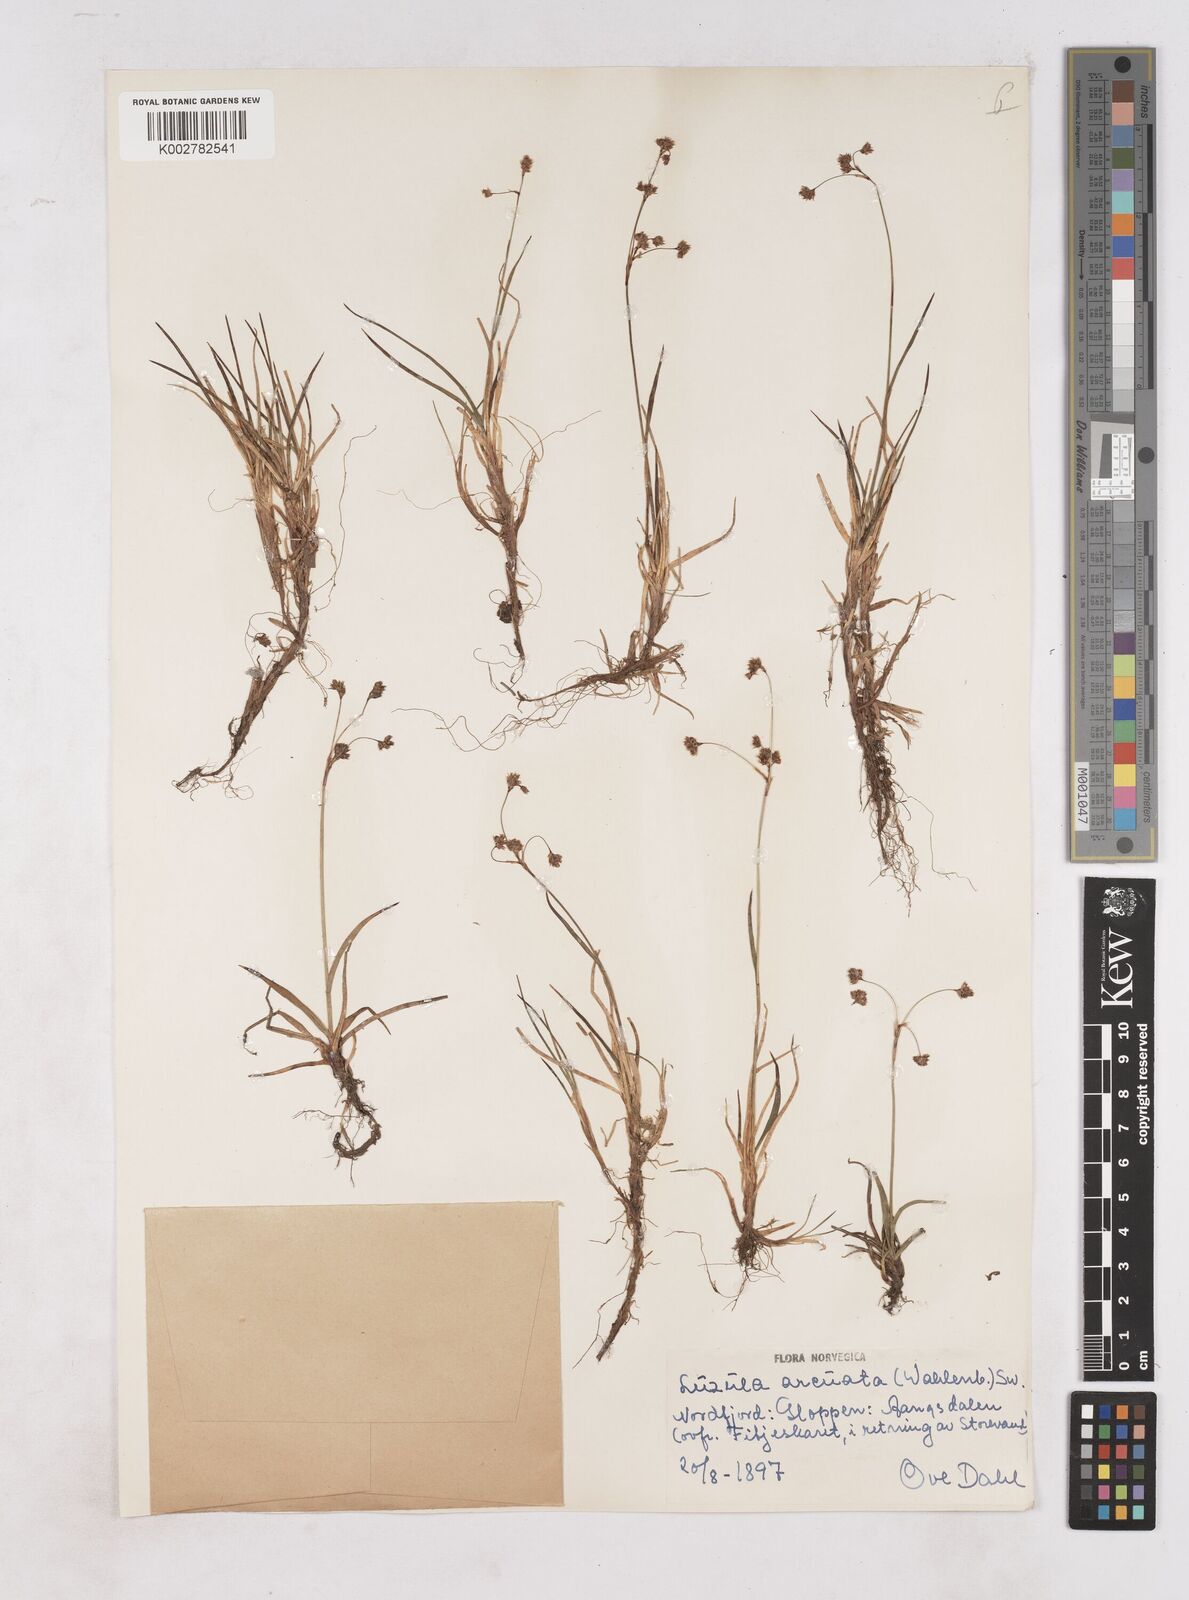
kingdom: Plantae
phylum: Tracheophyta
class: Liliopsida
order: Poales
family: Juncaceae
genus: Luzula
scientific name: Luzula arcuata
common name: Curved wood-rush
